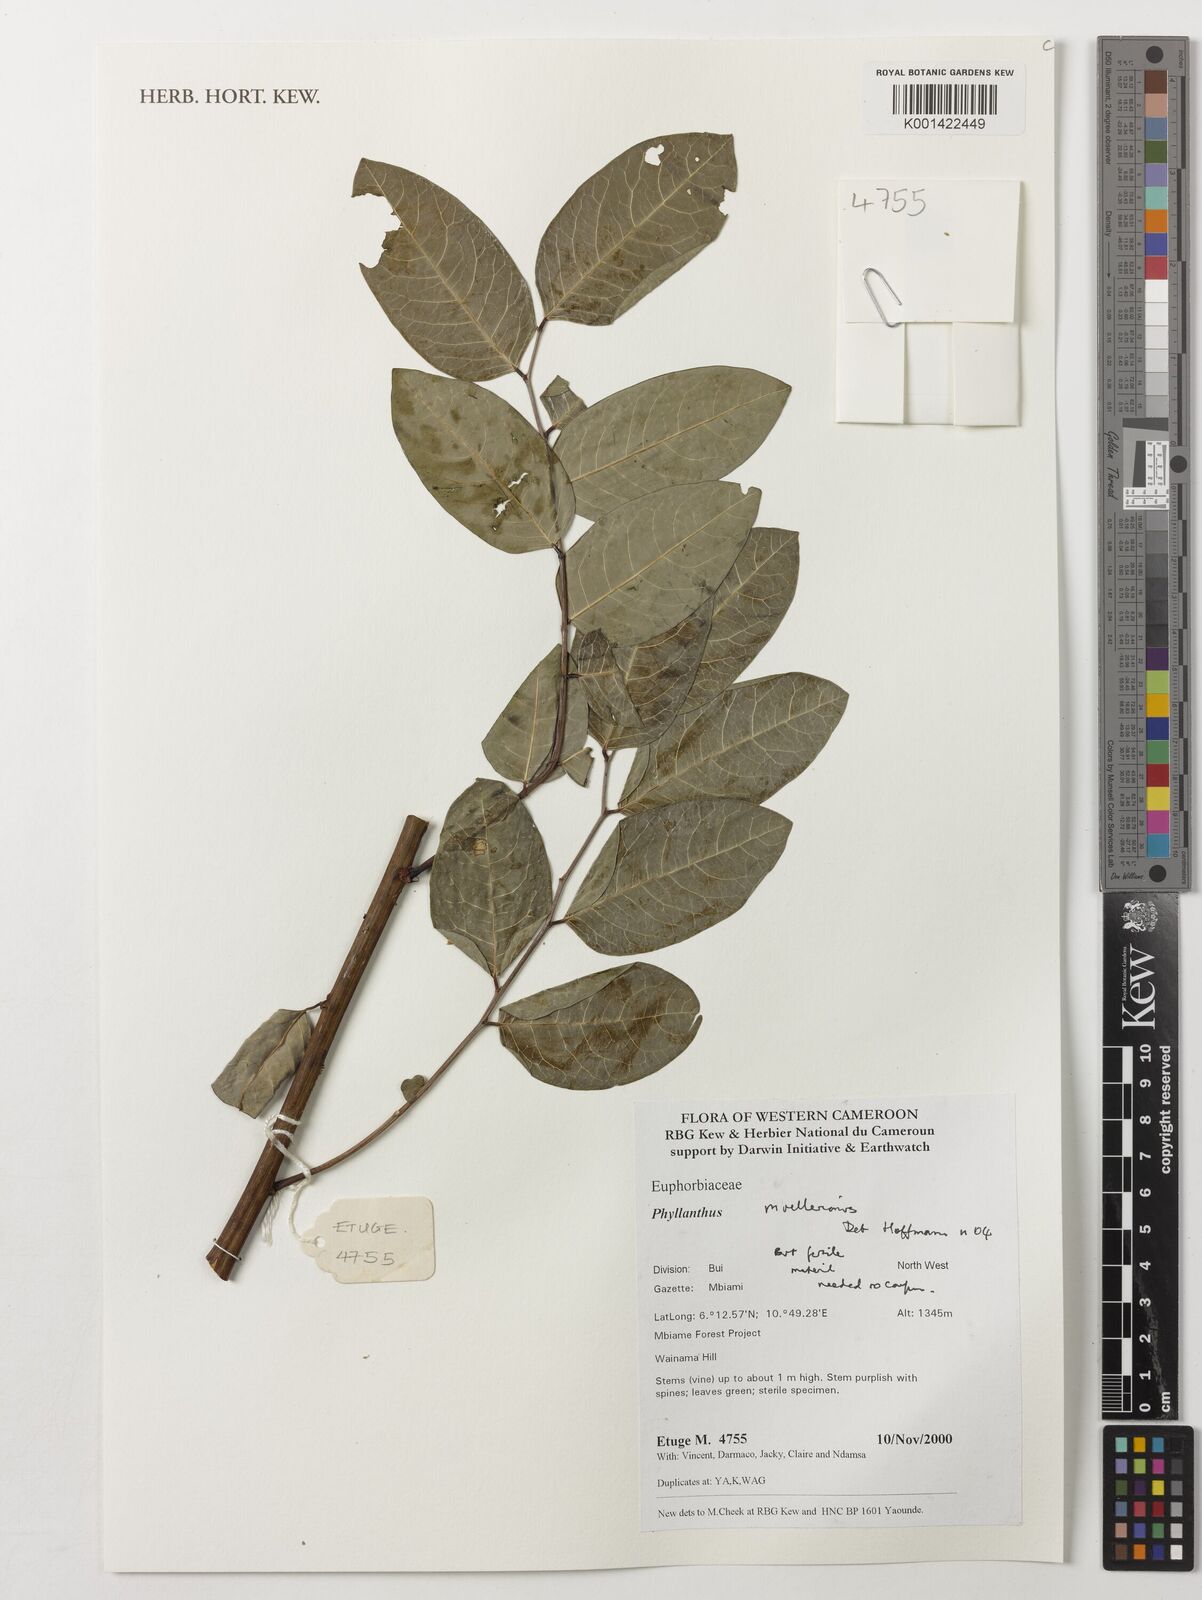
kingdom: Plantae
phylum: Tracheophyta
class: Magnoliopsida
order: Malpighiales
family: Phyllanthaceae
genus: Phyllanthus
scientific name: Phyllanthus muellerianus
